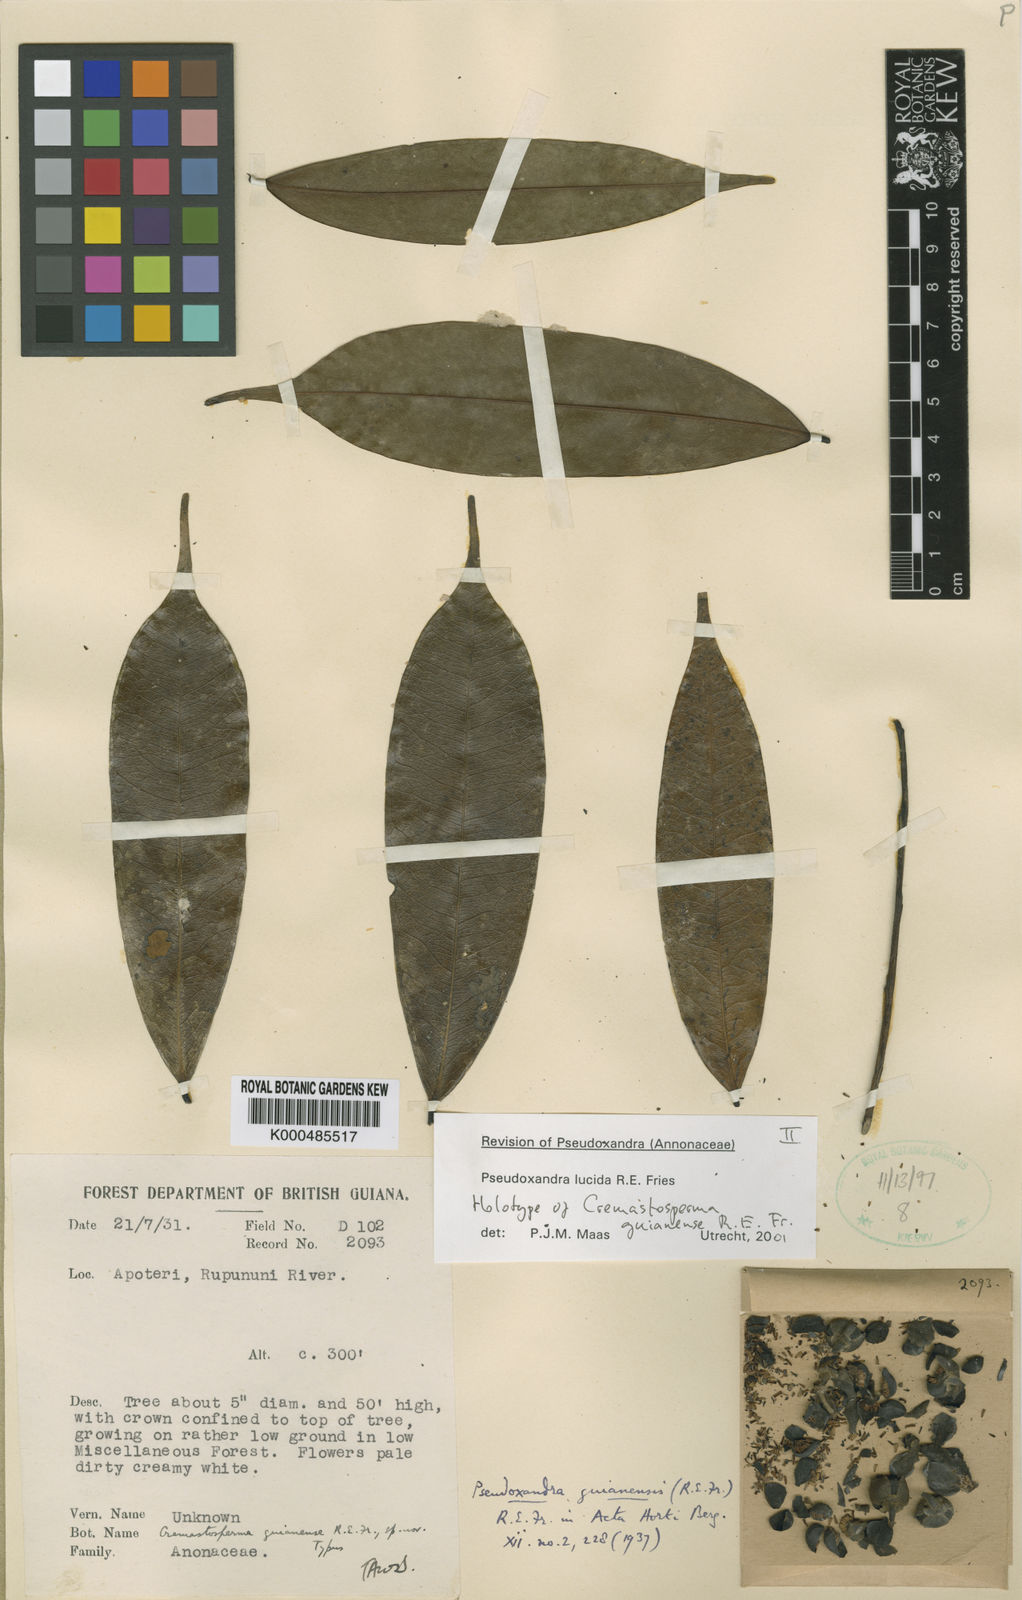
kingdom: Plantae
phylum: Tracheophyta
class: Magnoliopsida
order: Magnoliales
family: Annonaceae
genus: Pseudoxandra
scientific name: Pseudoxandra lucida
